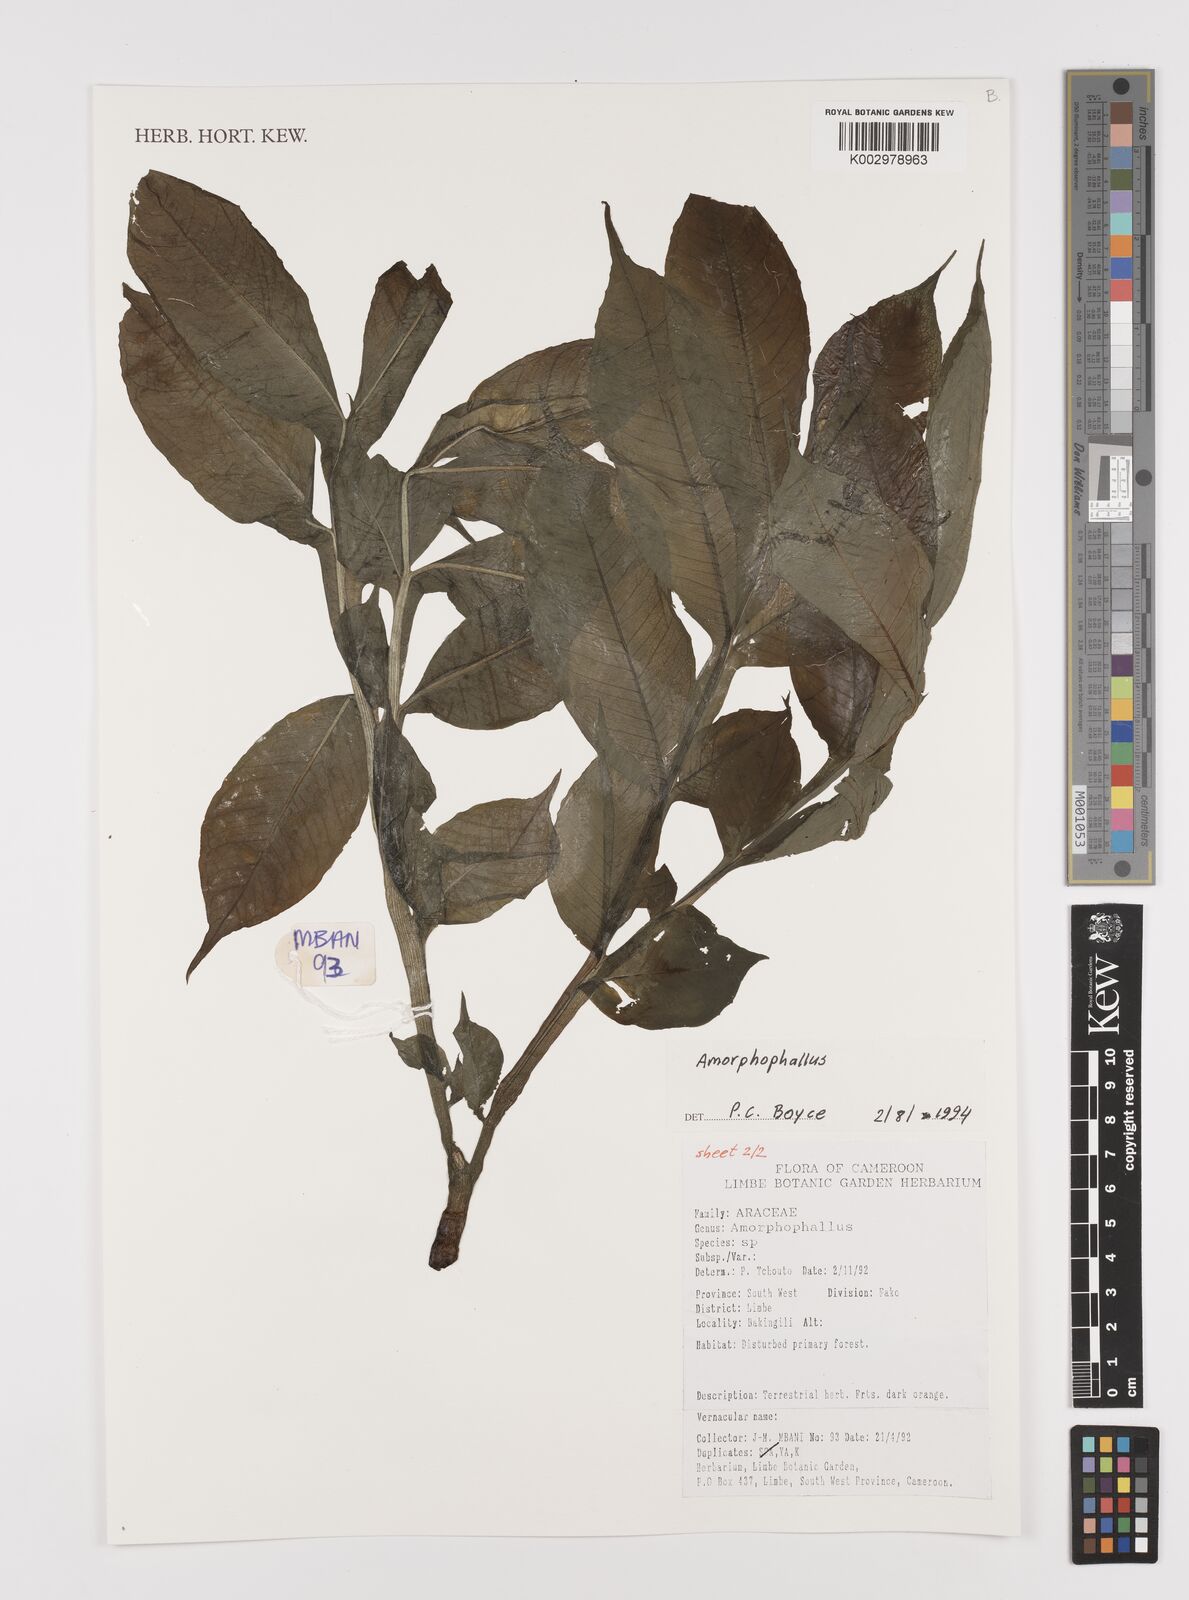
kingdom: Plantae
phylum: Tracheophyta
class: Liliopsida
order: Alismatales
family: Araceae
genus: Amorphophallus
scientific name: Amorphophallus
